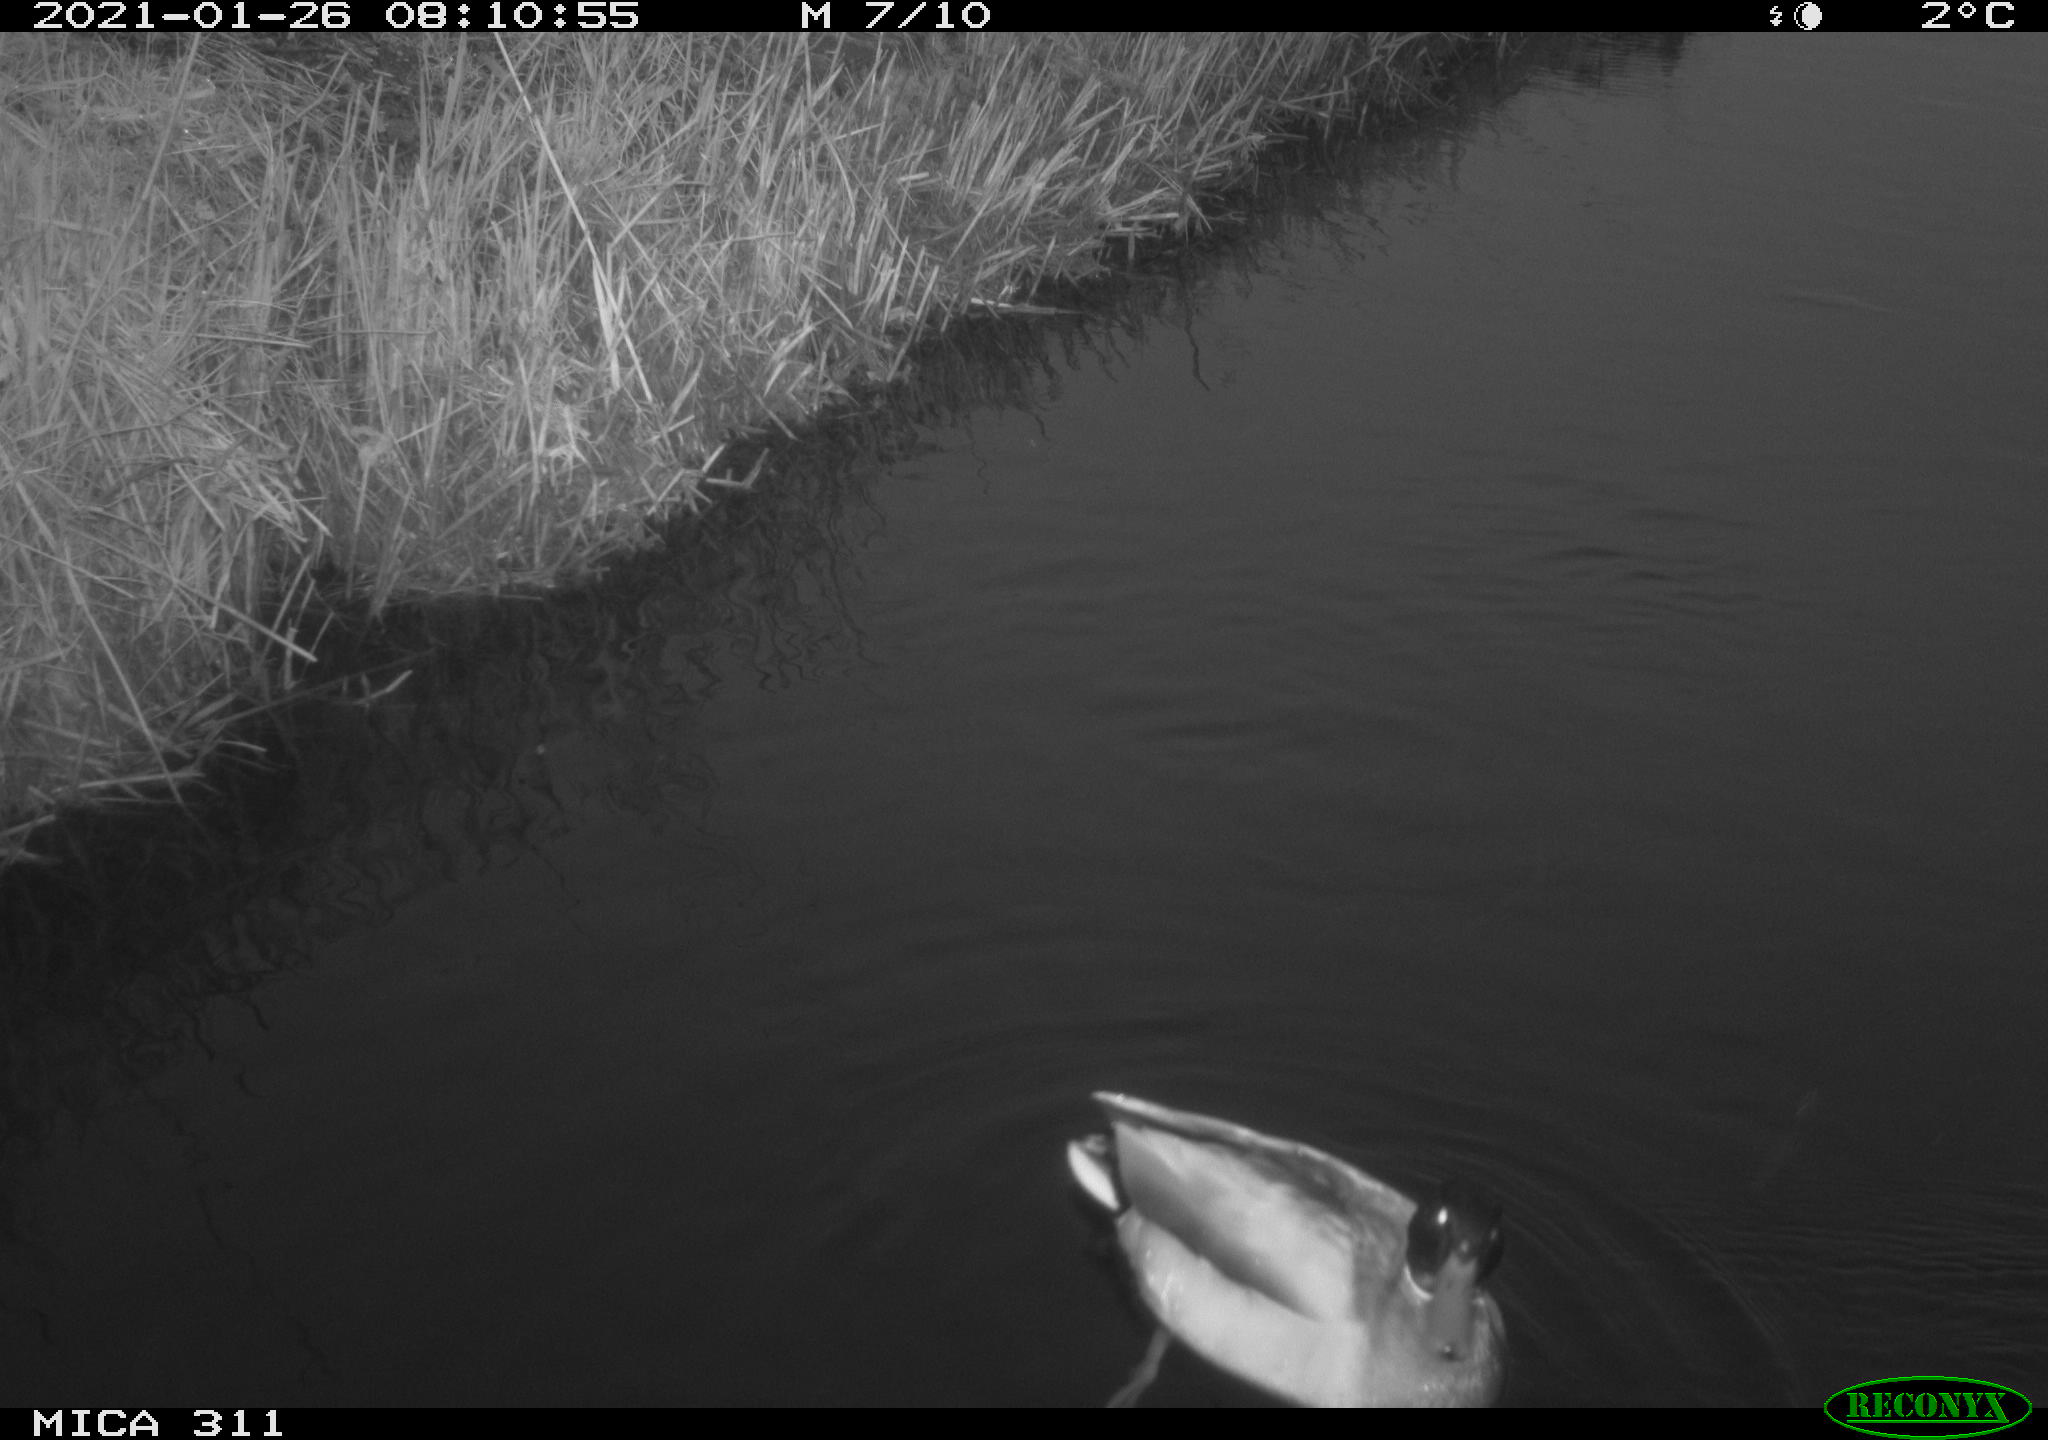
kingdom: Animalia
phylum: Chordata
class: Aves
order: Anseriformes
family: Anatidae
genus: Anas
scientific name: Anas
